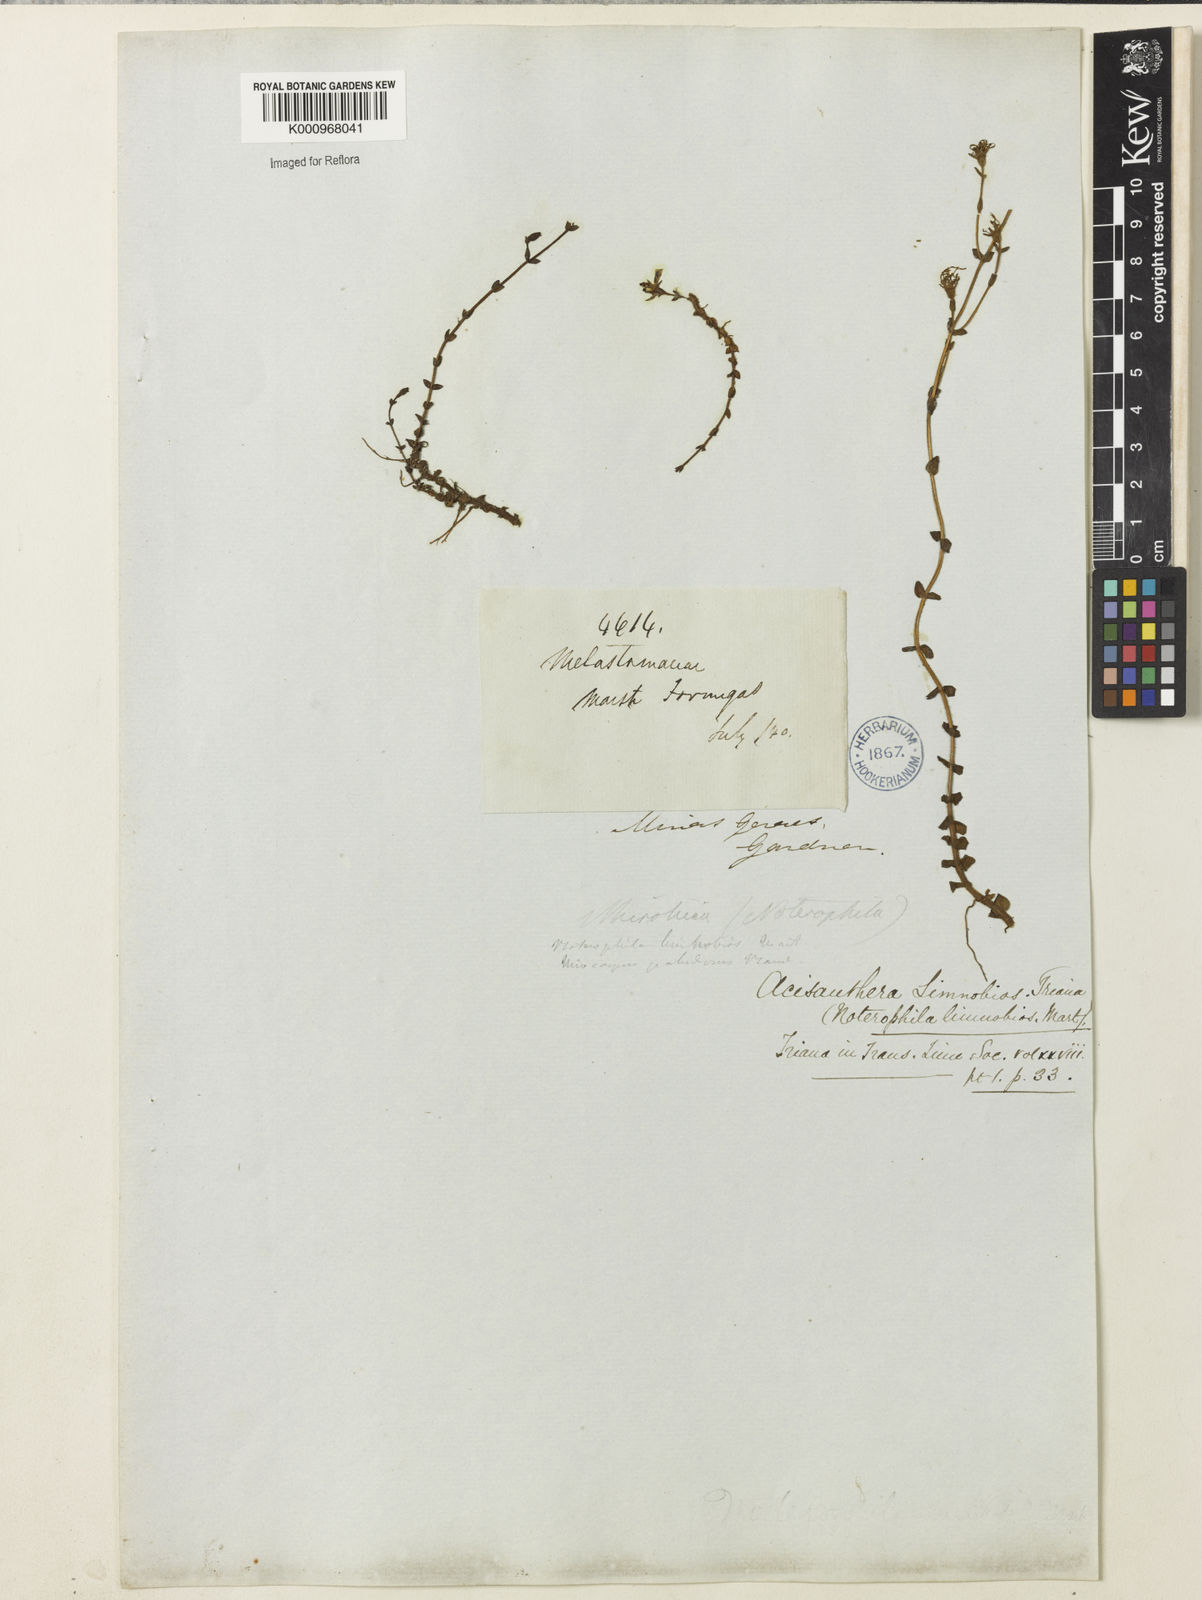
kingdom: Plantae
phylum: Tracheophyta
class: Magnoliopsida
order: Myrtales
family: Melastomataceae
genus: Acisanthera
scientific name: Acisanthera
